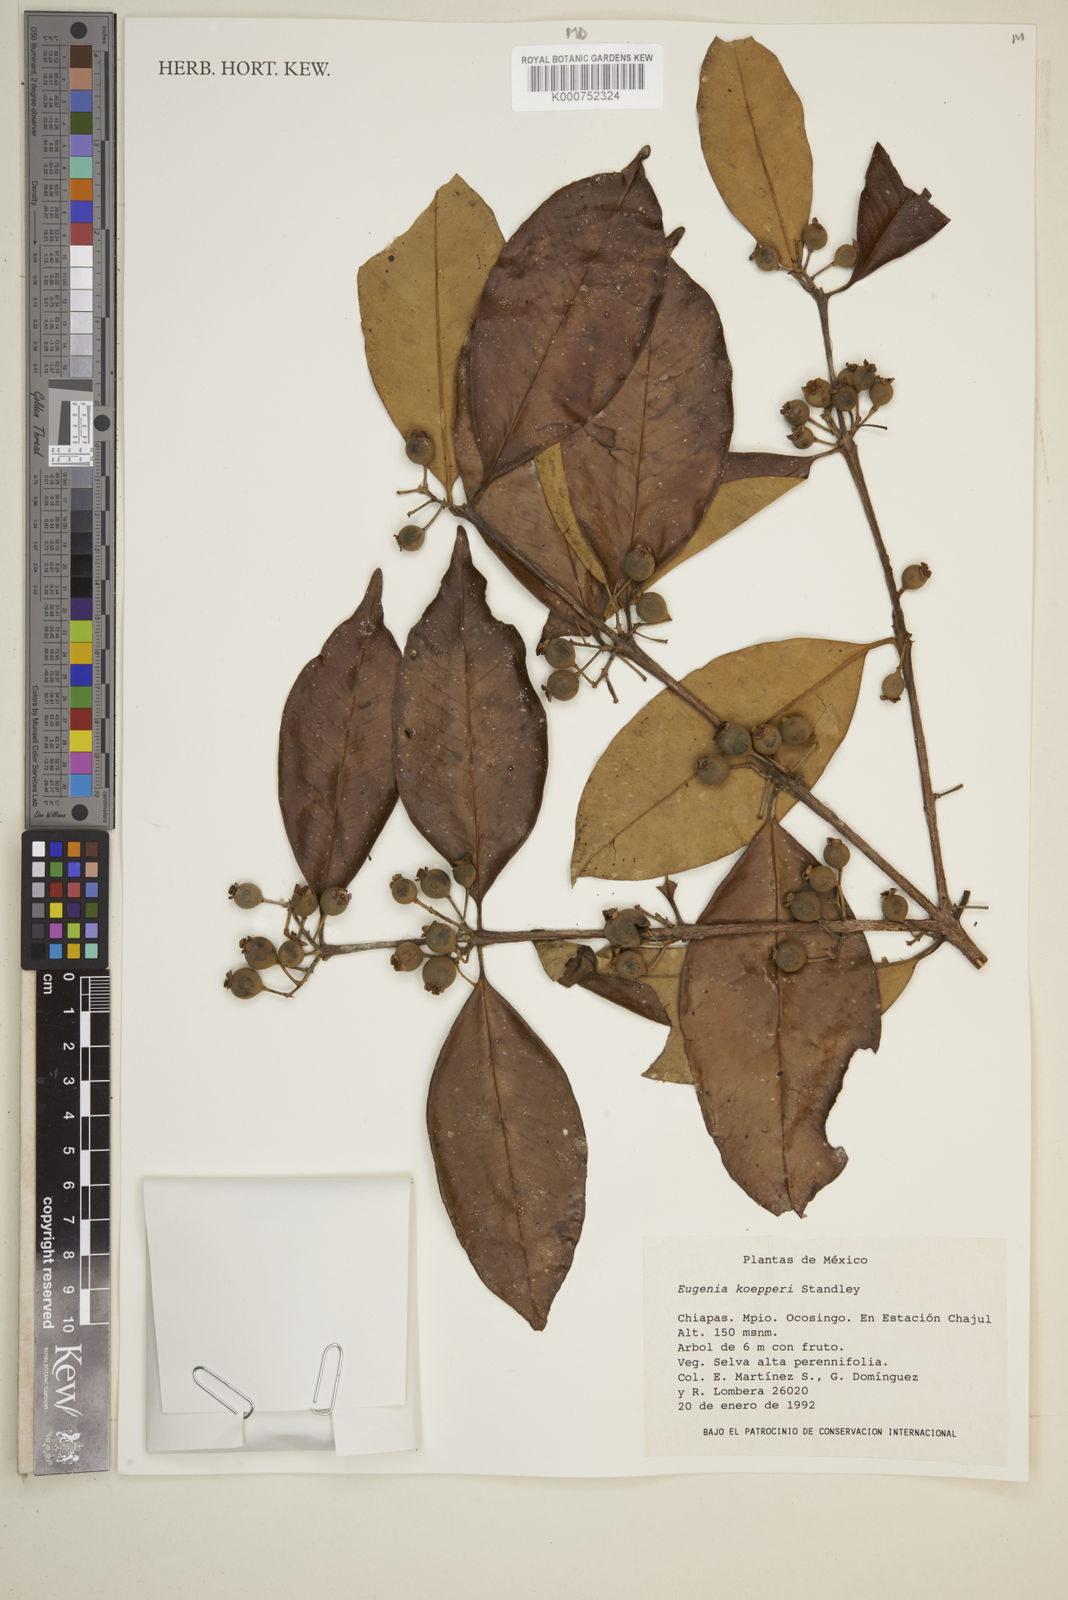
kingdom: Plantae
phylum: Tracheophyta
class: Magnoliopsida
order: Myrtales
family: Myrtaceae
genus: Eugenia
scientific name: Eugenia koepperi
